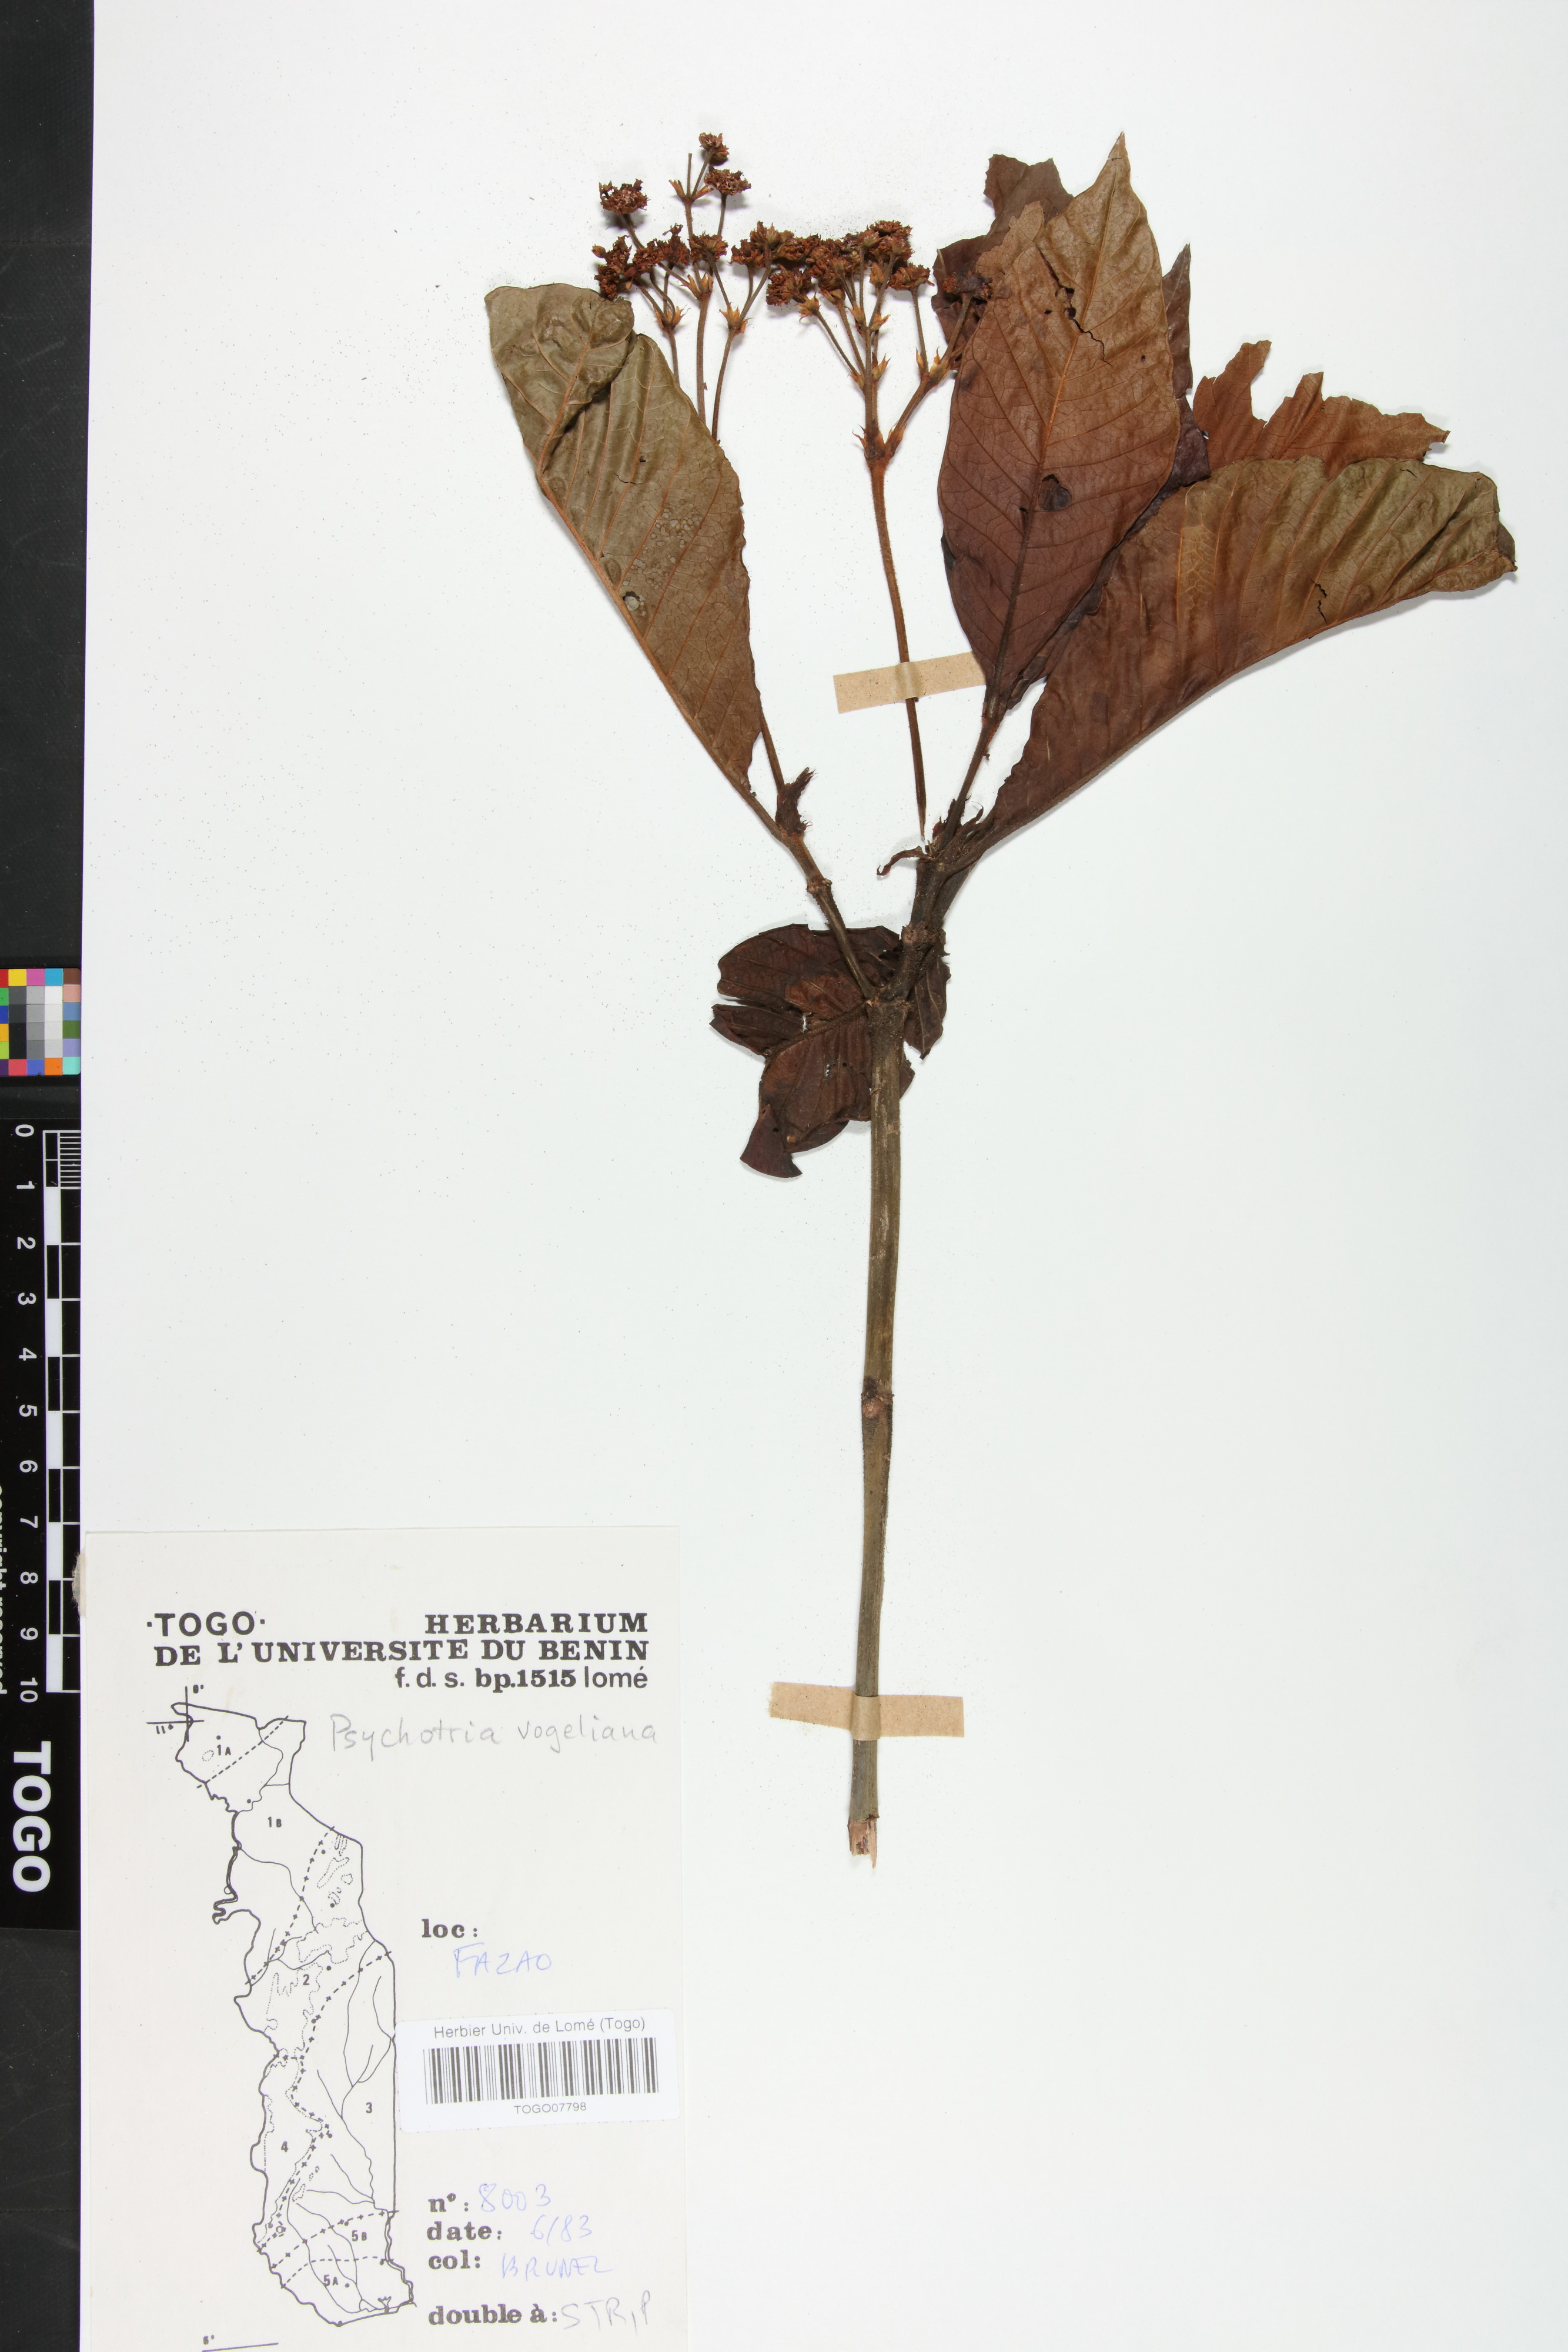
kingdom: Plantae
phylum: Tracheophyta
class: Magnoliopsida
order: Gentianales
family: Rubiaceae
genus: Psychotria
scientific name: Psychotria vogeliana
